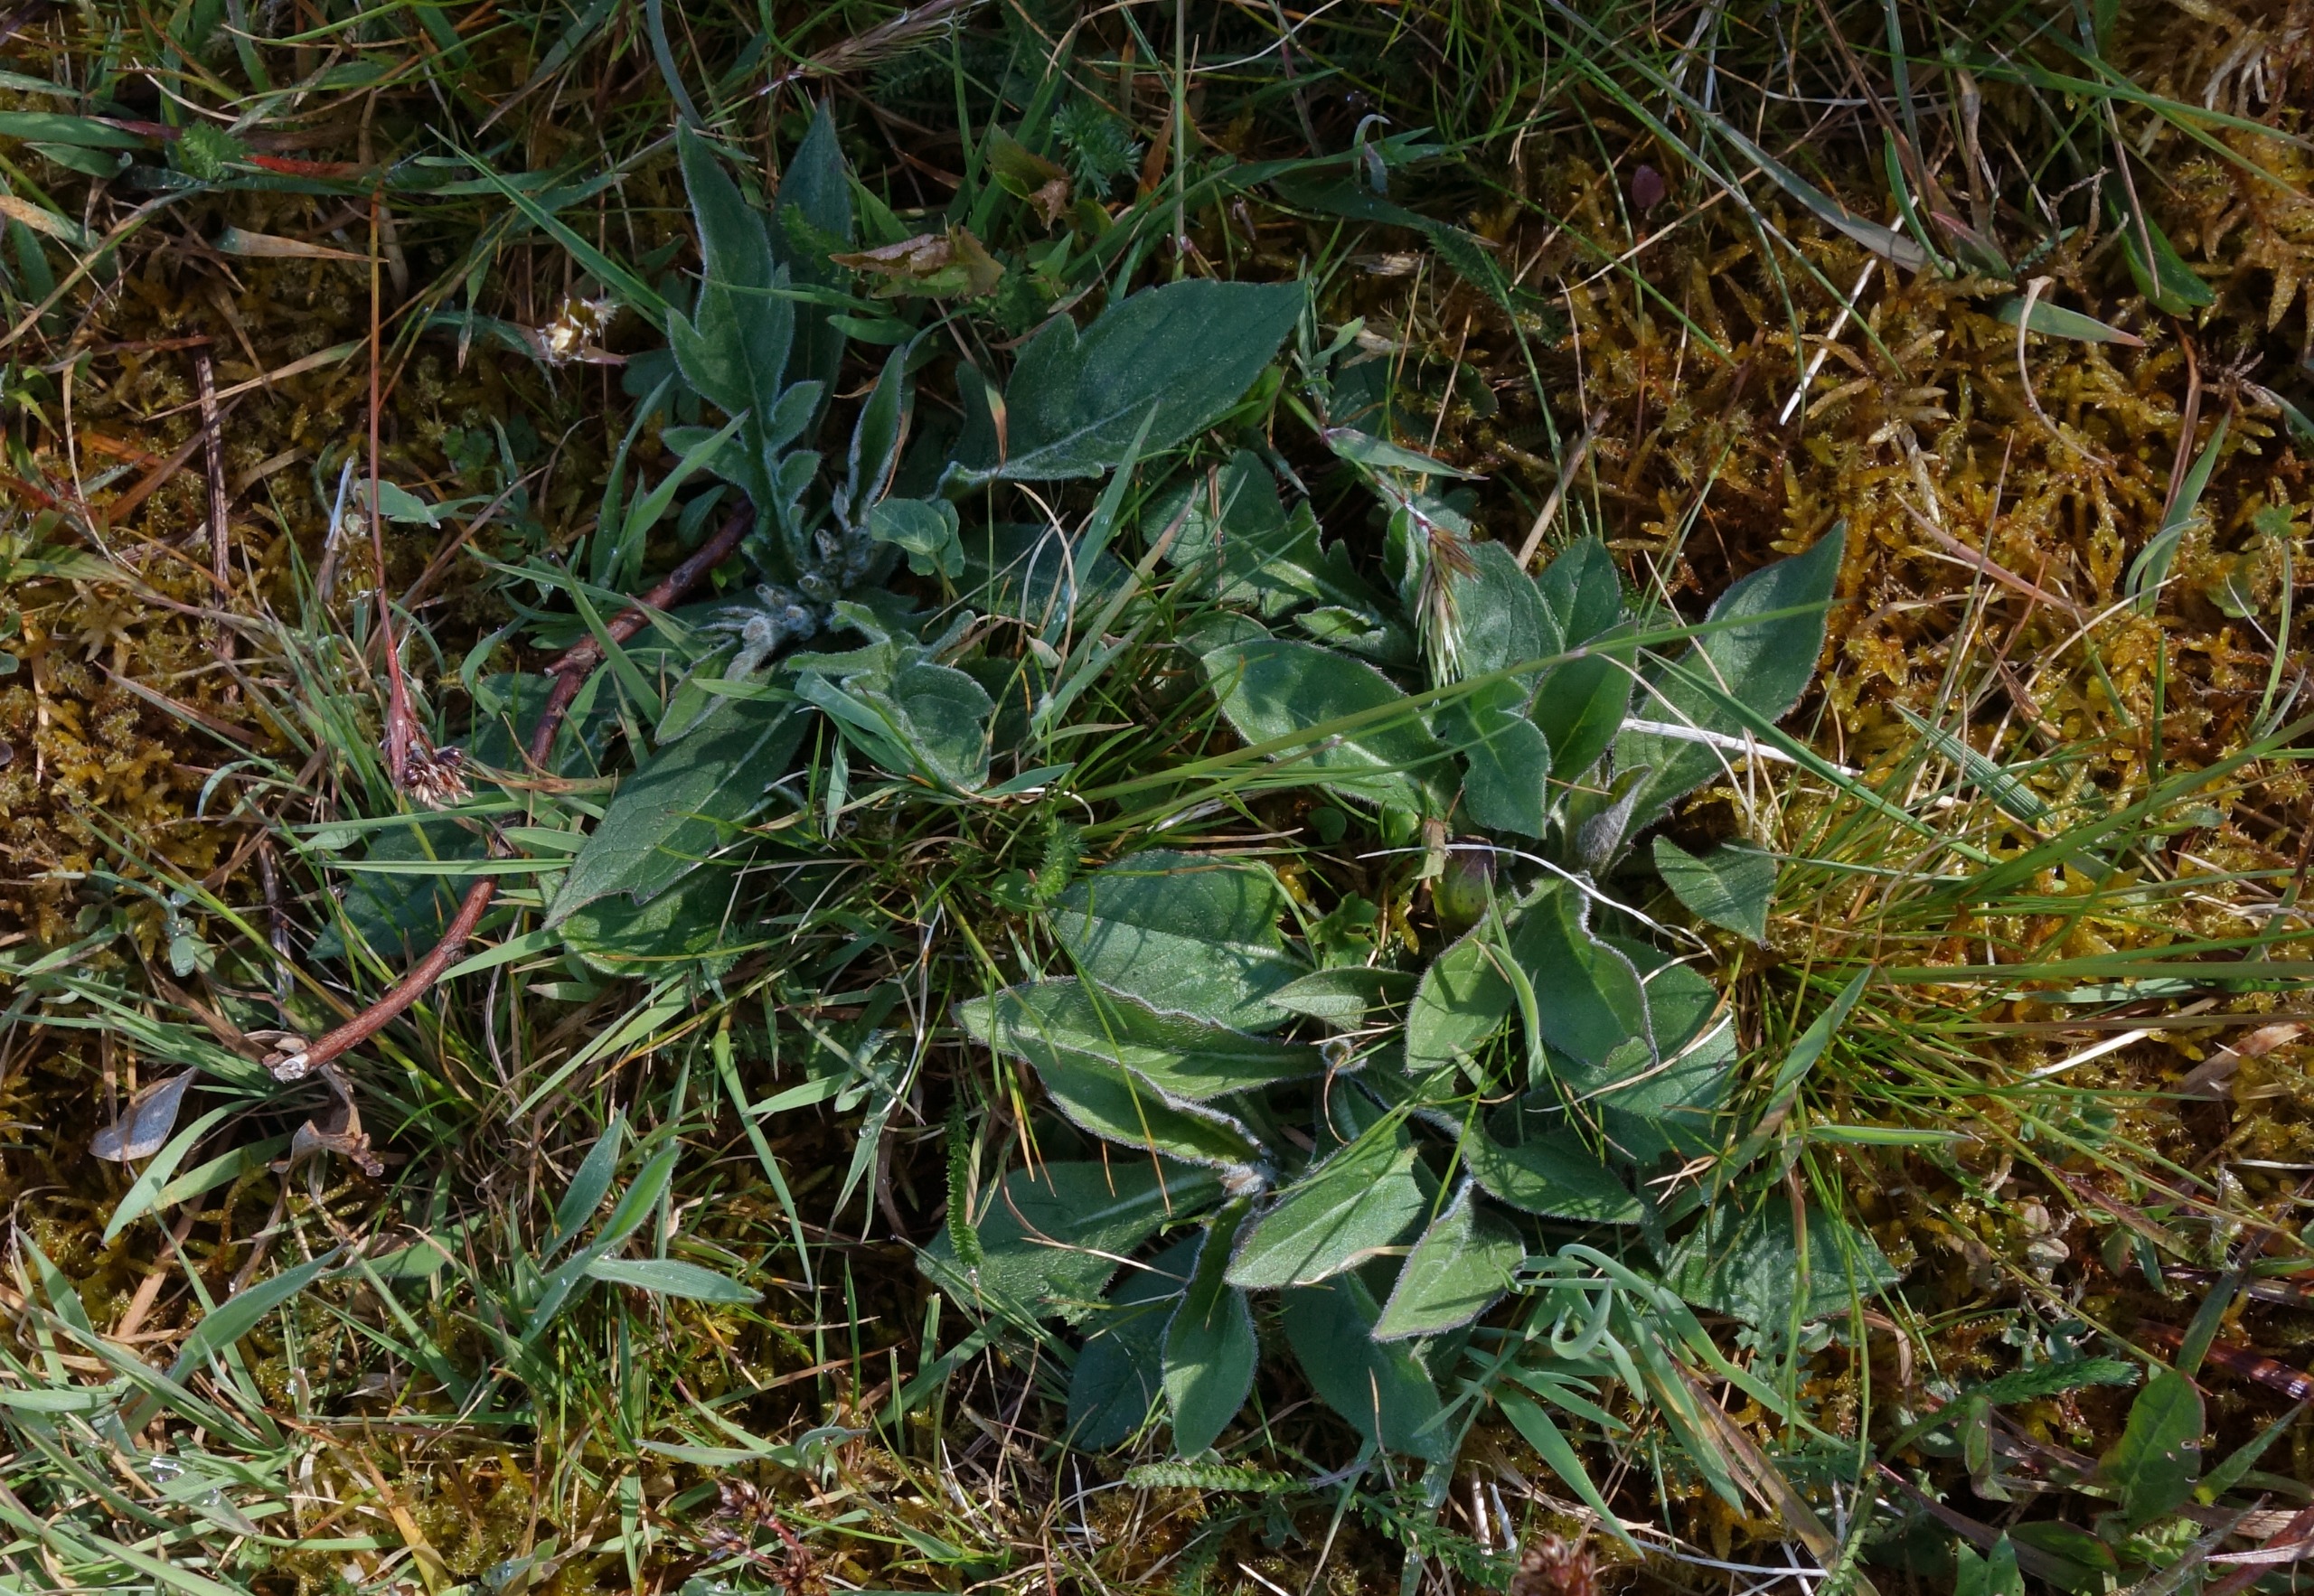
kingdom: Plantae
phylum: Tracheophyta
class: Magnoliopsida
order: Dipsacales
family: Caprifoliaceae
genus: Knautia
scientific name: Knautia arvensis
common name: Blåhat
